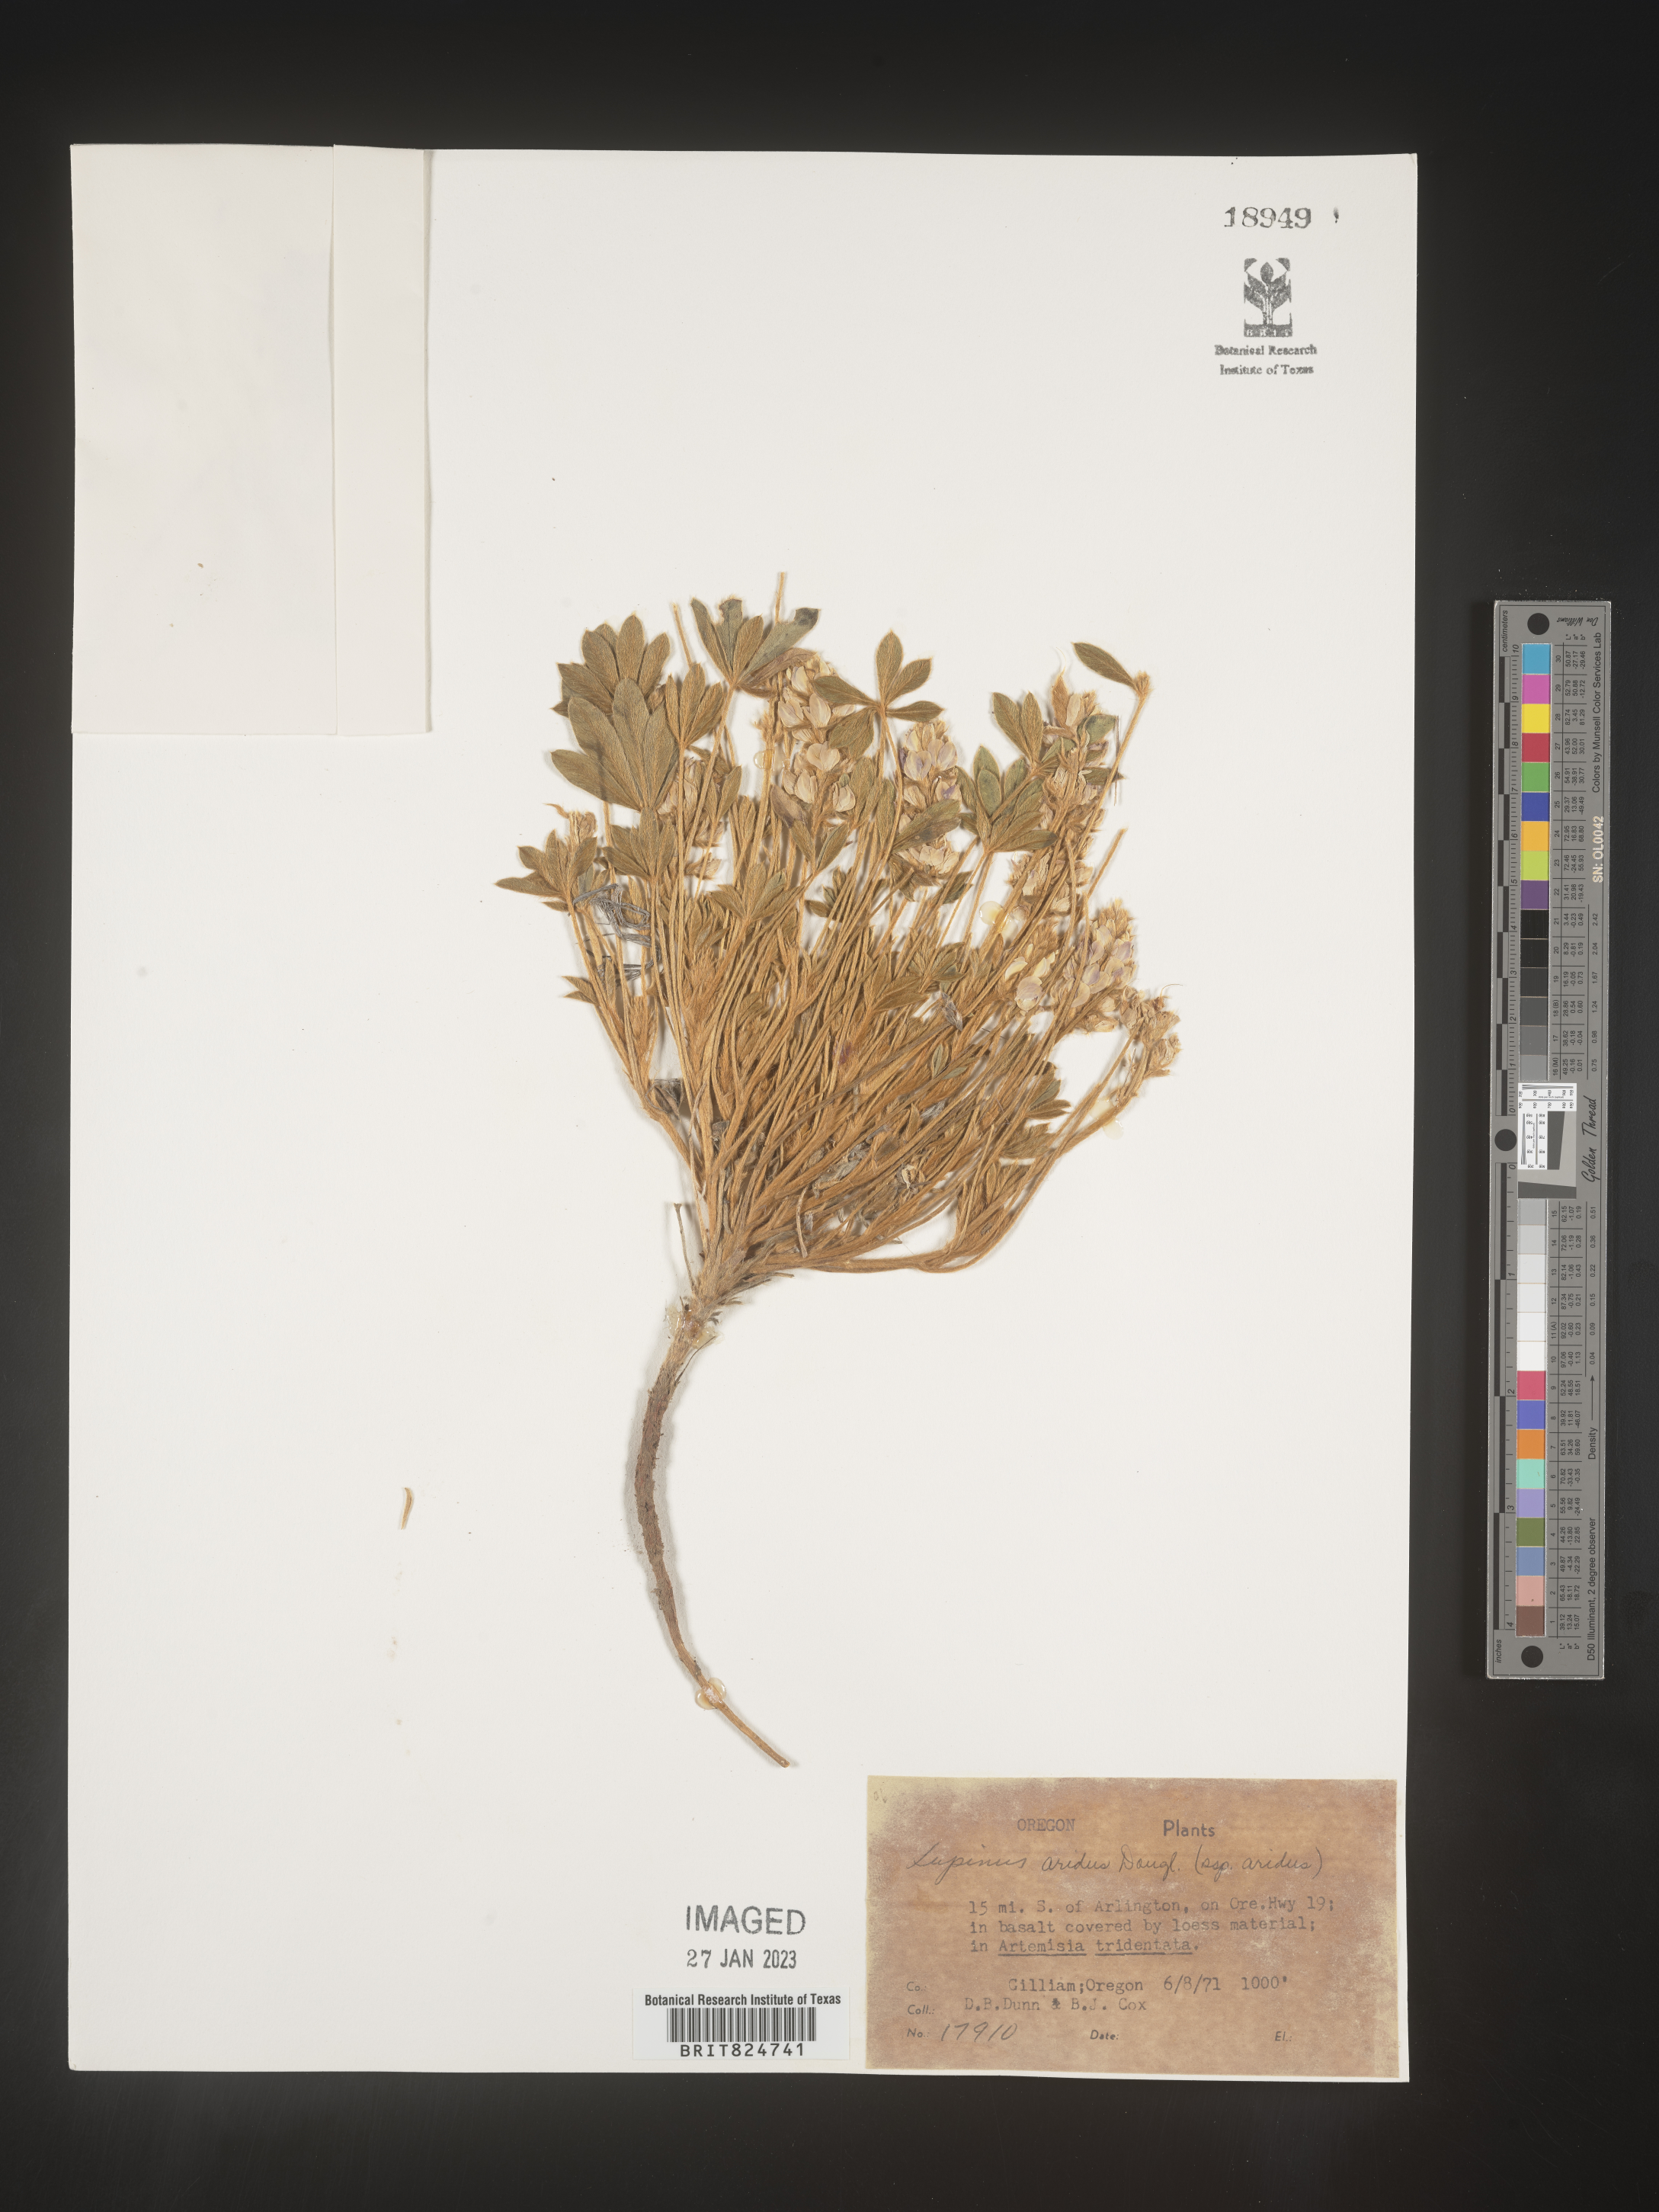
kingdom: Plantae
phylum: Tracheophyta
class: Magnoliopsida
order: Fabales
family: Fabaceae
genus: Lupinus
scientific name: Lupinus aridus
